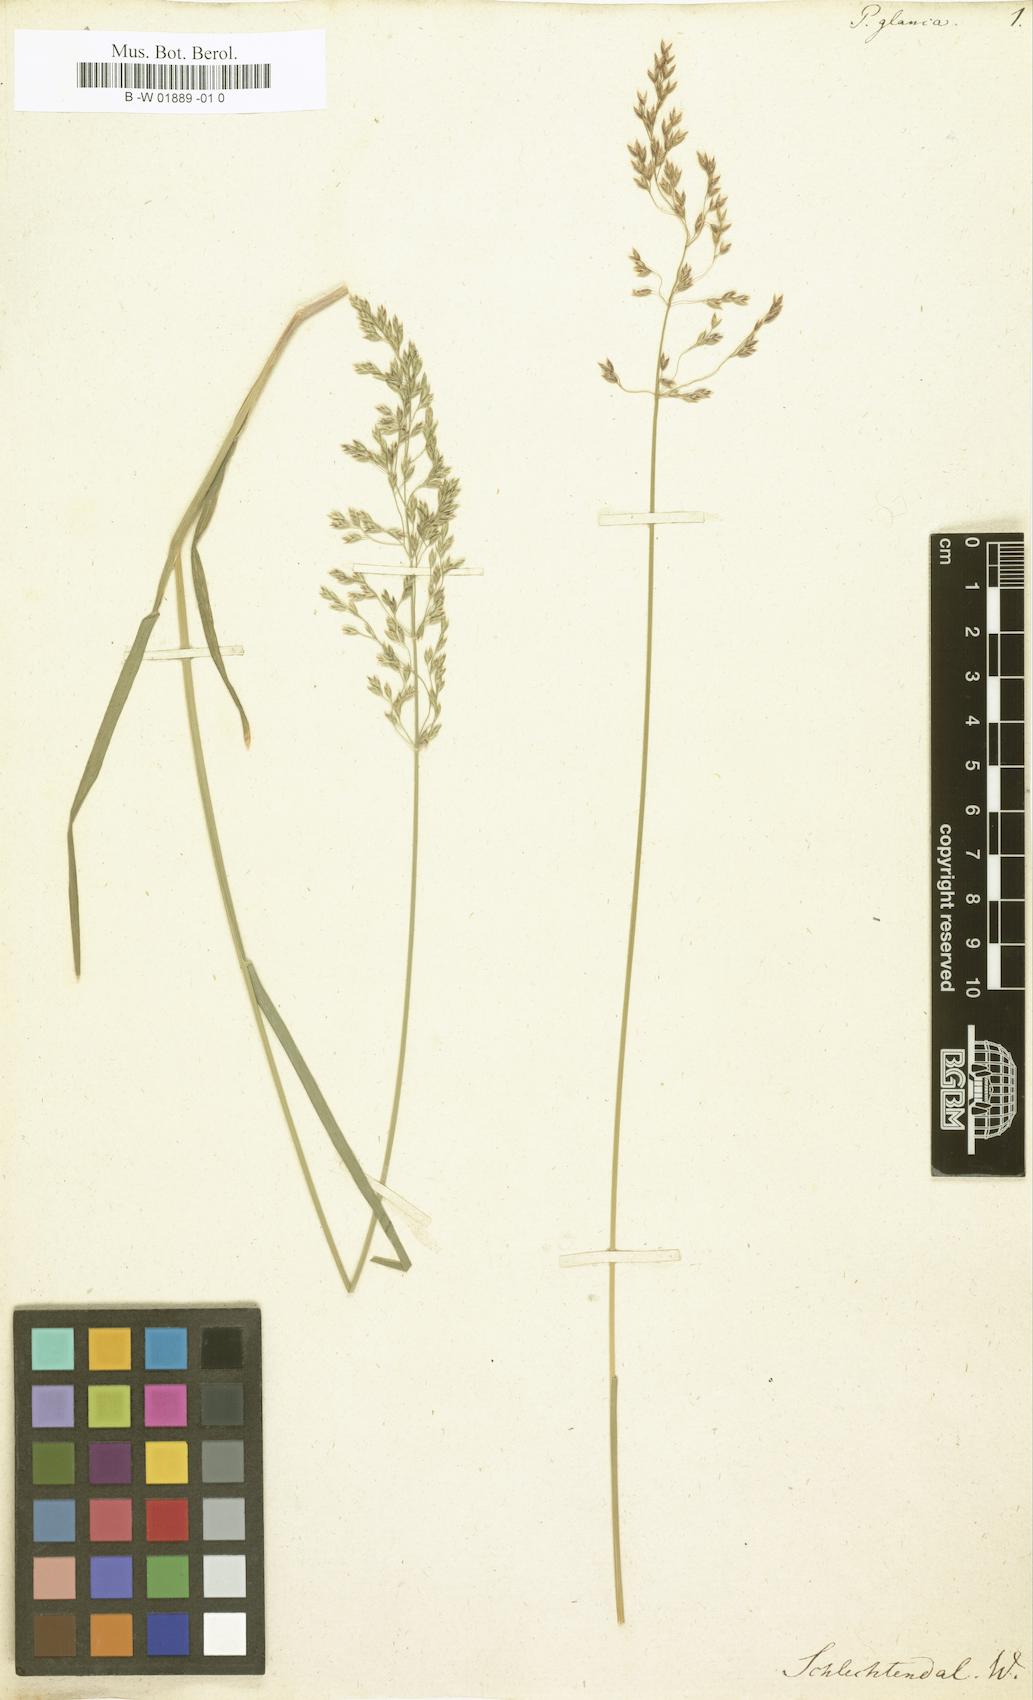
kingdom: Plantae
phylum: Tracheophyta
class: Liliopsida
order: Poales
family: Poaceae
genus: Poa
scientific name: Poa glauca
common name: Glaucous bluegrass
